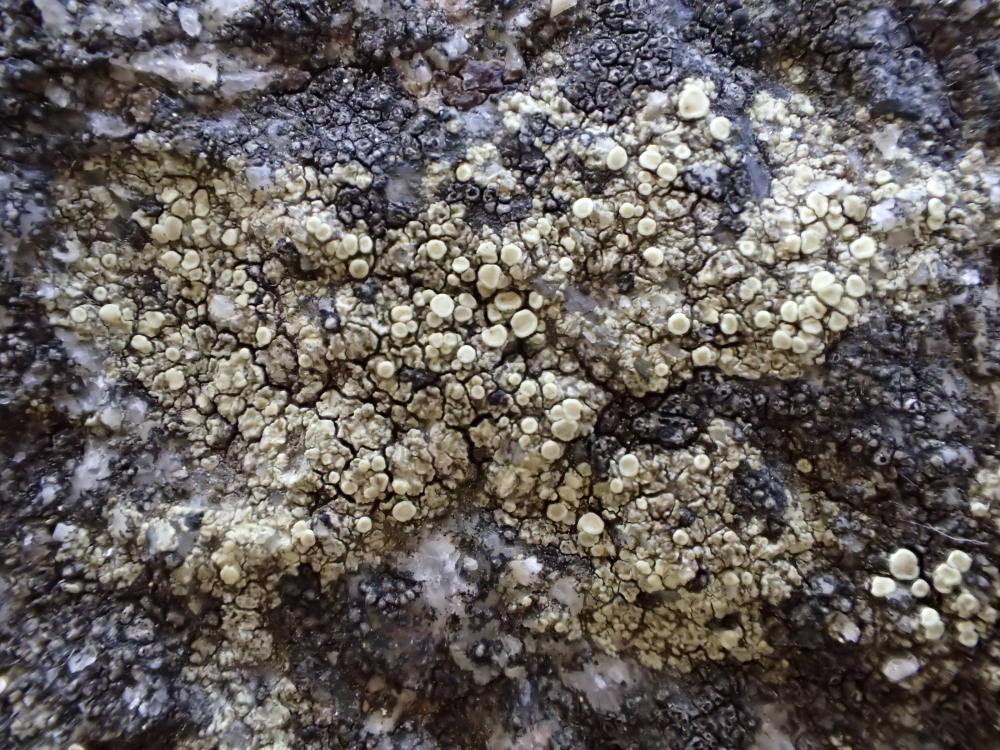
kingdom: Fungi
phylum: Ascomycota
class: Lecanoromycetes
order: Lecanorales
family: Lecanoraceae
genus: Lecanora
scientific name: Lecanora polytropa
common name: bleggrøn kantskivelav
